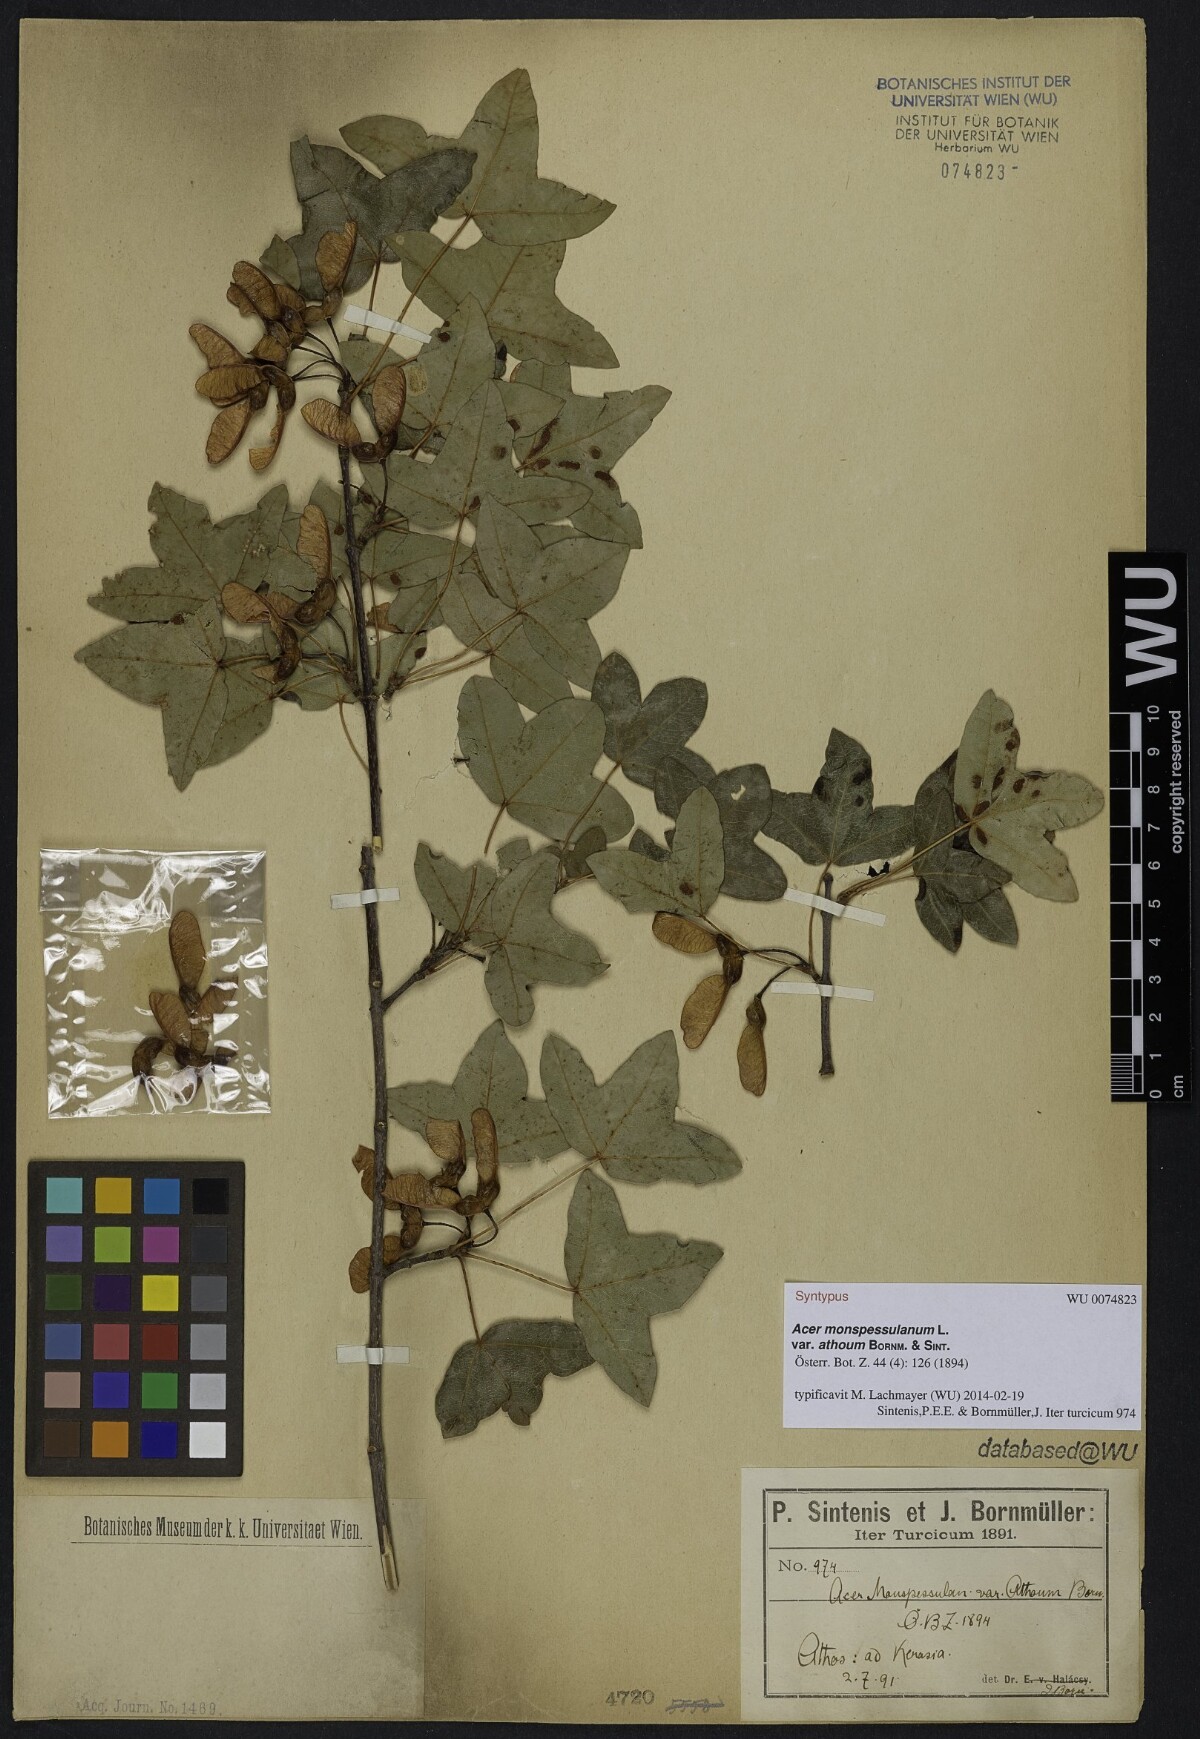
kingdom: Plantae
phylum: Tracheophyta
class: Magnoliopsida
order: Sapindales
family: Sapindaceae
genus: Acer
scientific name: Acer monspessulanum
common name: Montpellier maple
